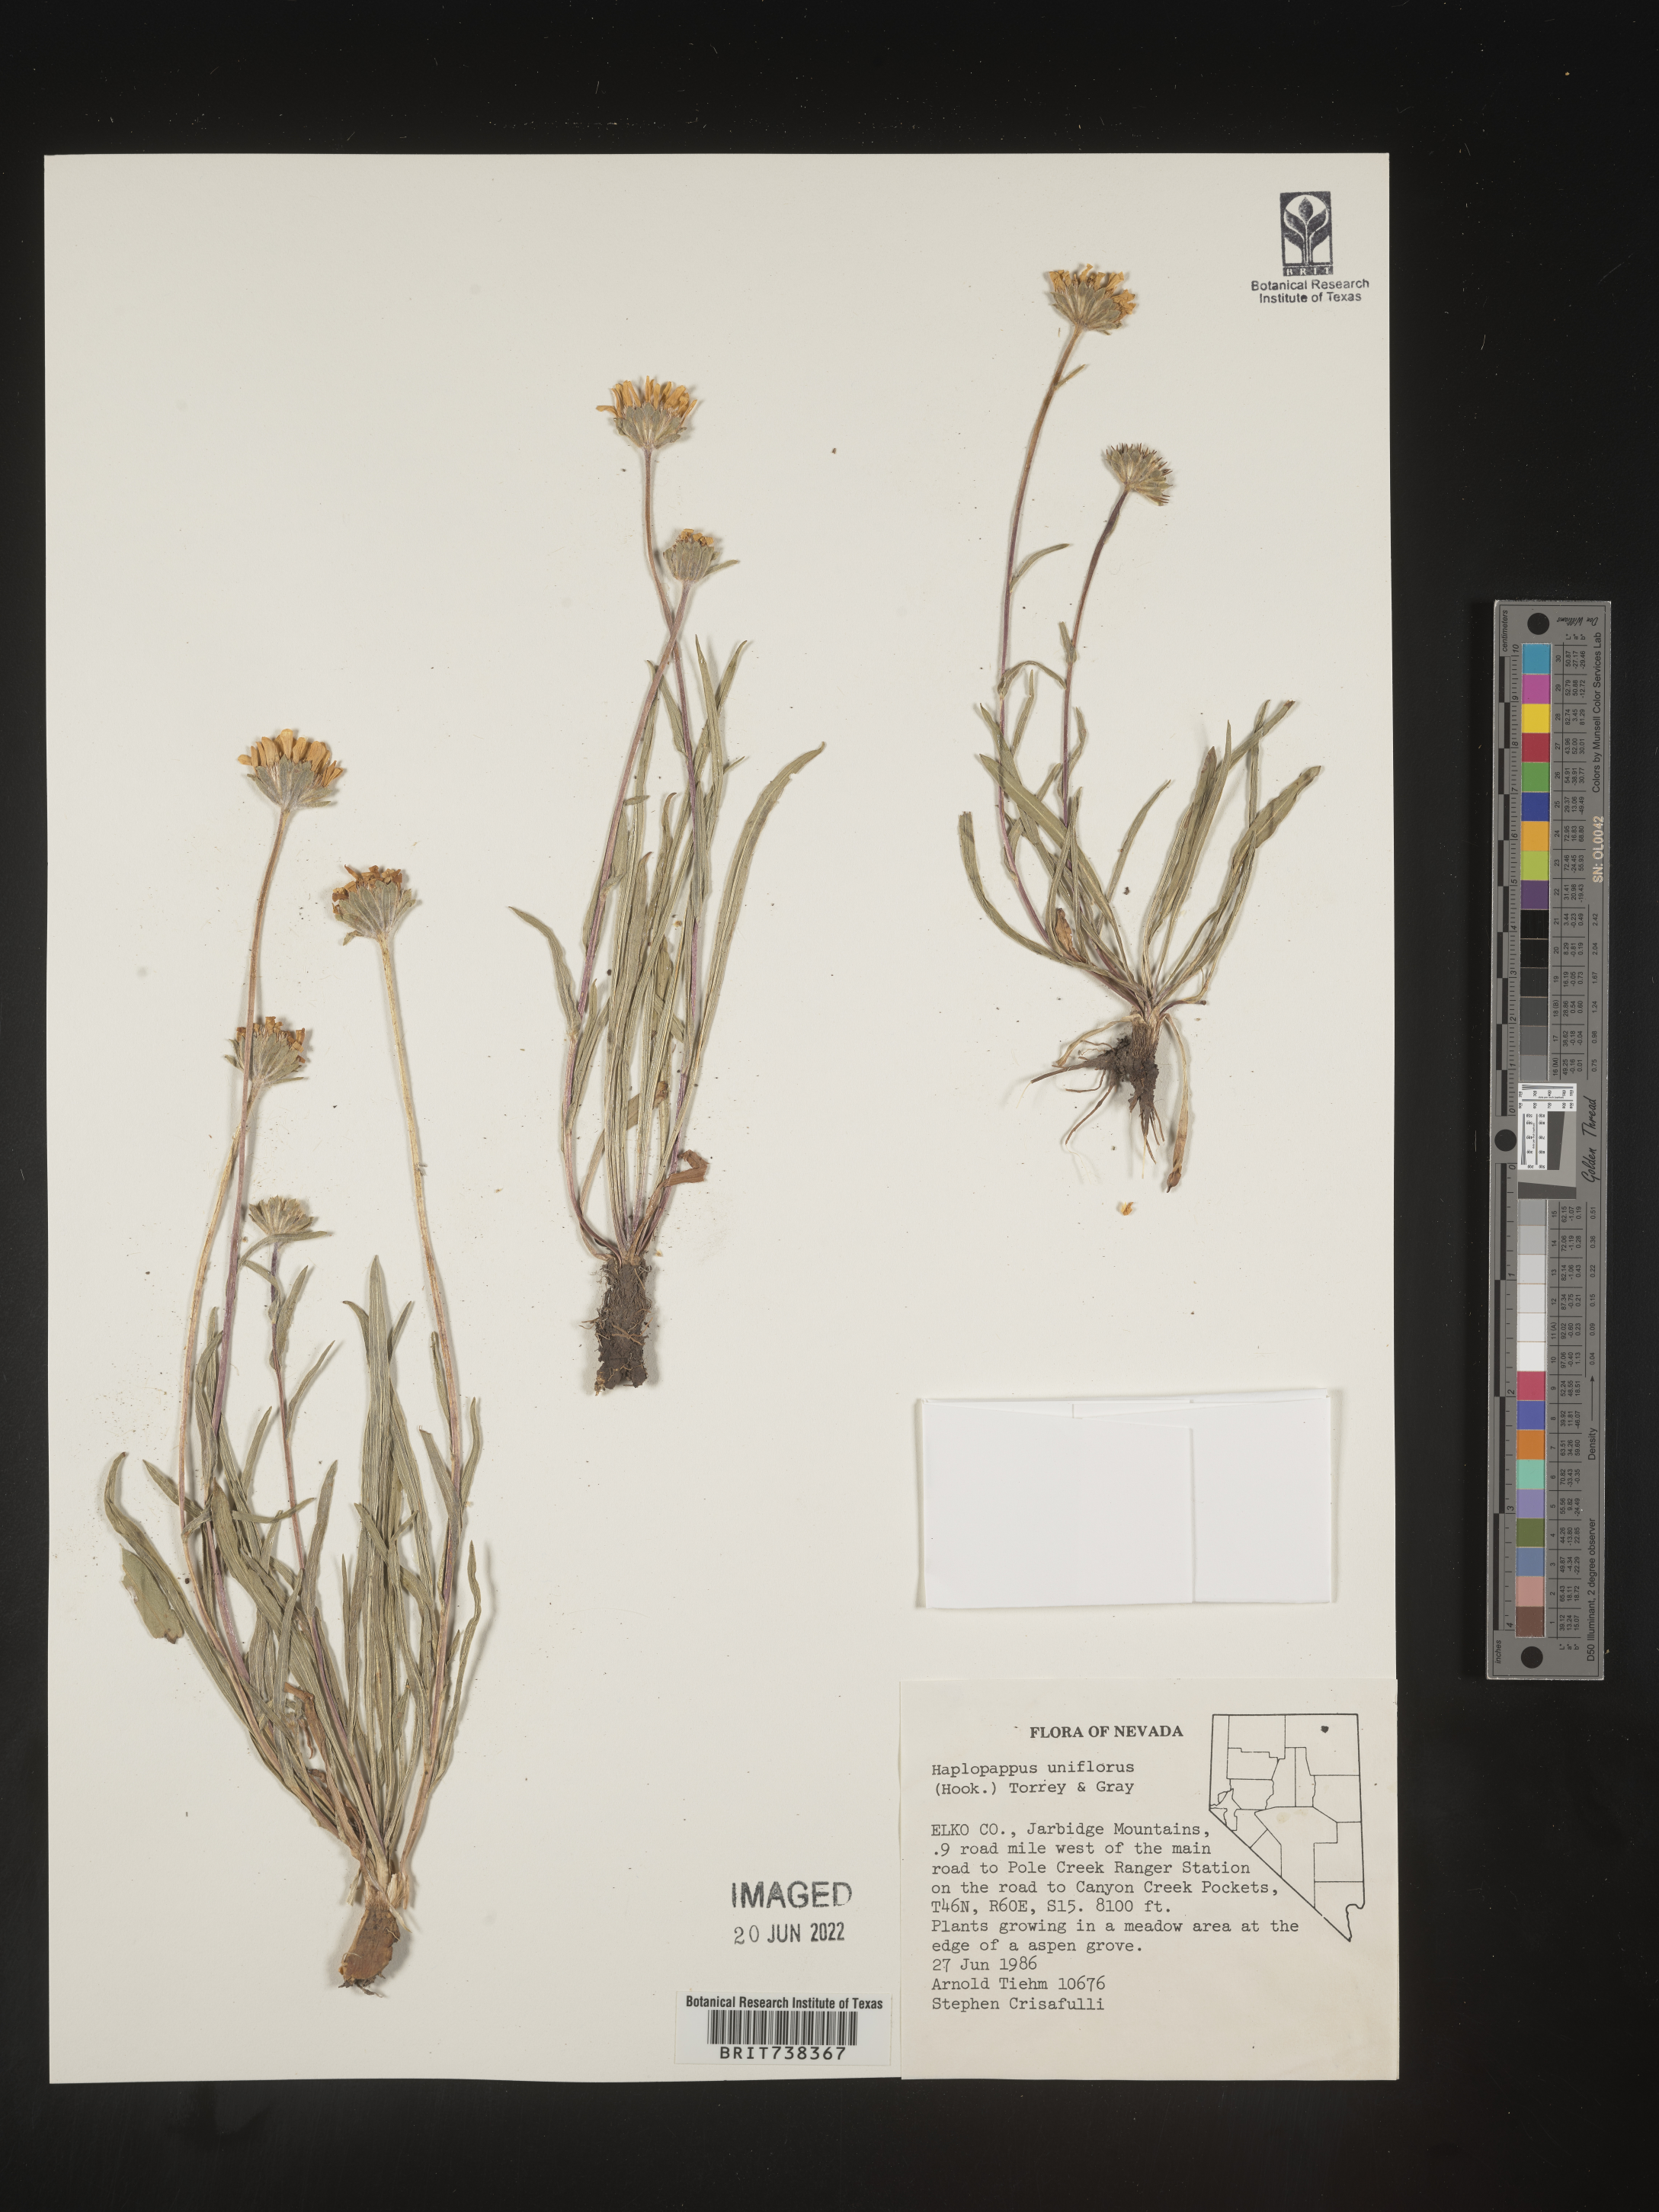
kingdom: Plantae
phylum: Tracheophyta
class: Magnoliopsida
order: Asterales
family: Asteraceae
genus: Pyrrocoma
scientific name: Pyrrocoma uniflora
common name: Plantain goldenweed
